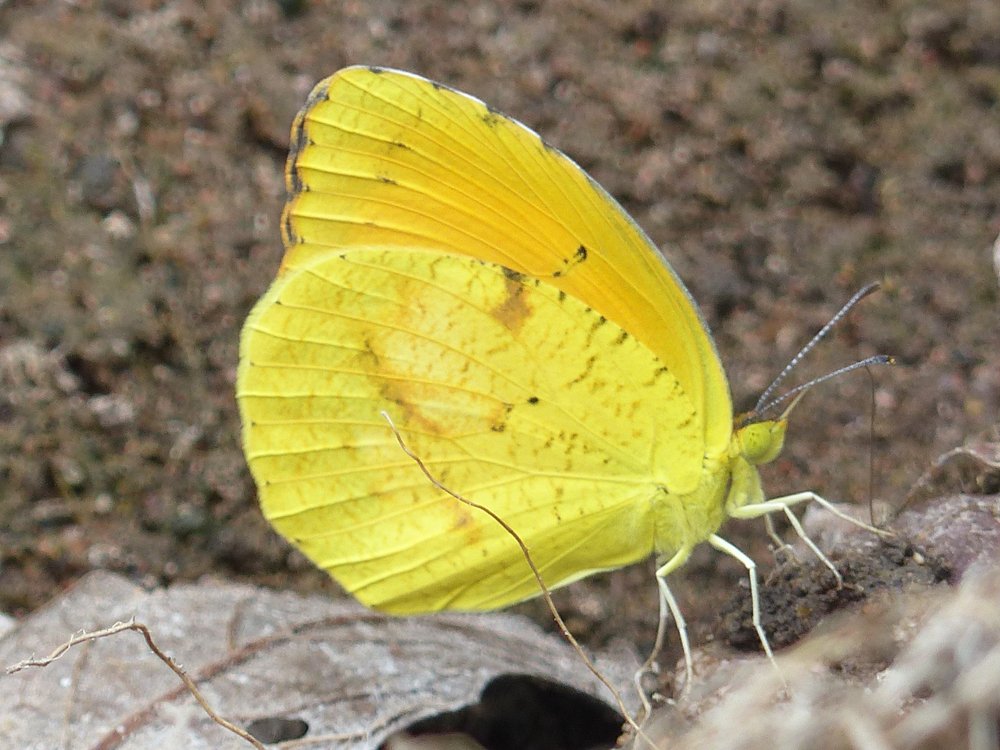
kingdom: Animalia
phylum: Arthropoda
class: Insecta
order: Lepidoptera
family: Pieridae
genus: Abaeis
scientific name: Abaeis nicippe
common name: Sleepy Orange
